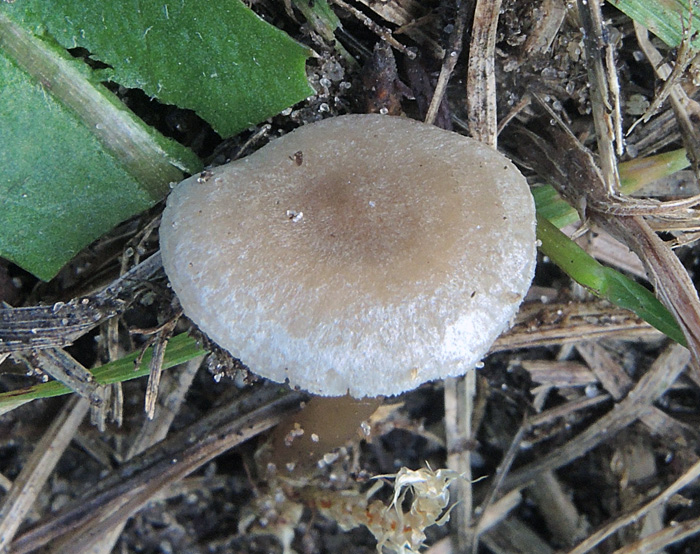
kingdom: Fungi
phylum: Basidiomycota
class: Agaricomycetes
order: Agaricales
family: Lyophyllaceae
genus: Lyophyllum
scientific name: Lyophyllum tomentellum
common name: finfiltet gråblad
